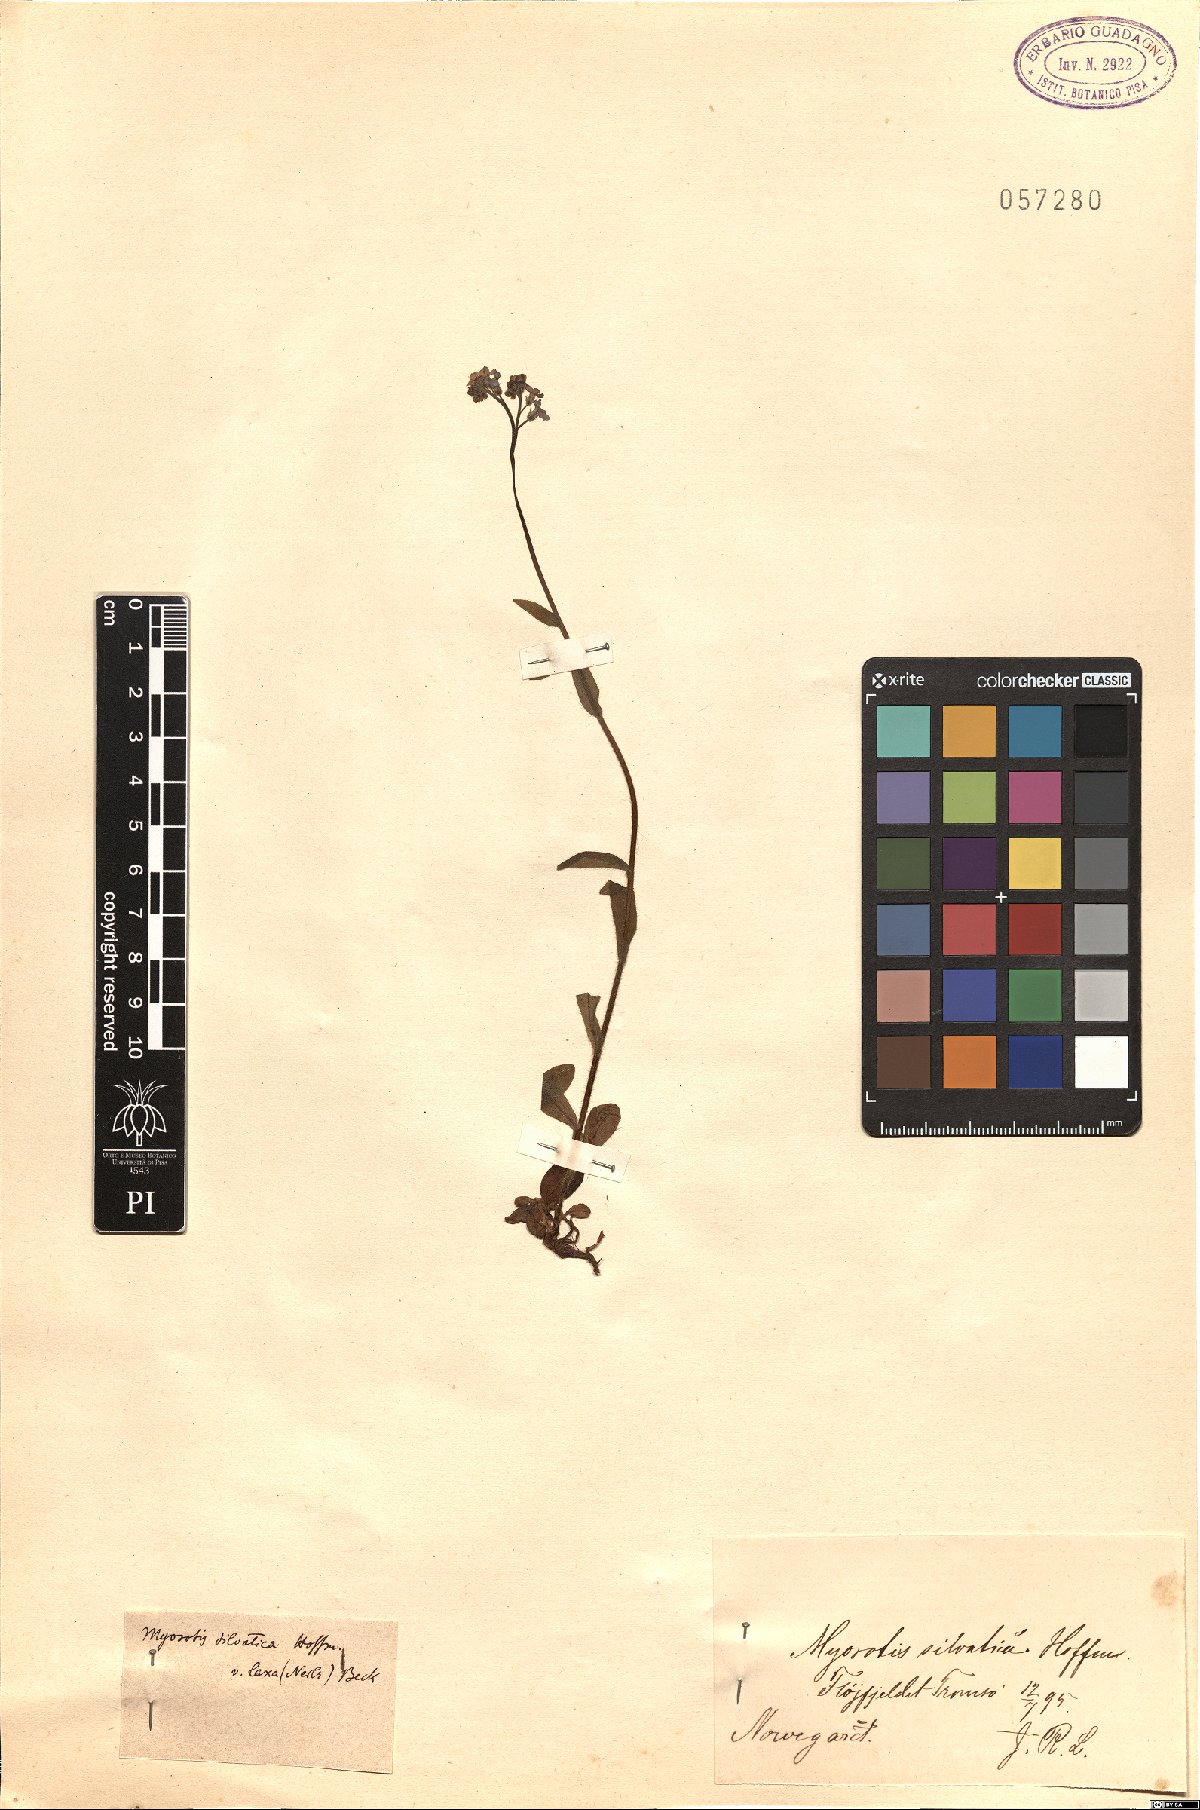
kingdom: Plantae
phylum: Tracheophyta
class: Magnoliopsida
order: Boraginales
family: Boraginaceae
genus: Myosotis
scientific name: Myosotis sylvatica
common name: Wood forget-me-not
